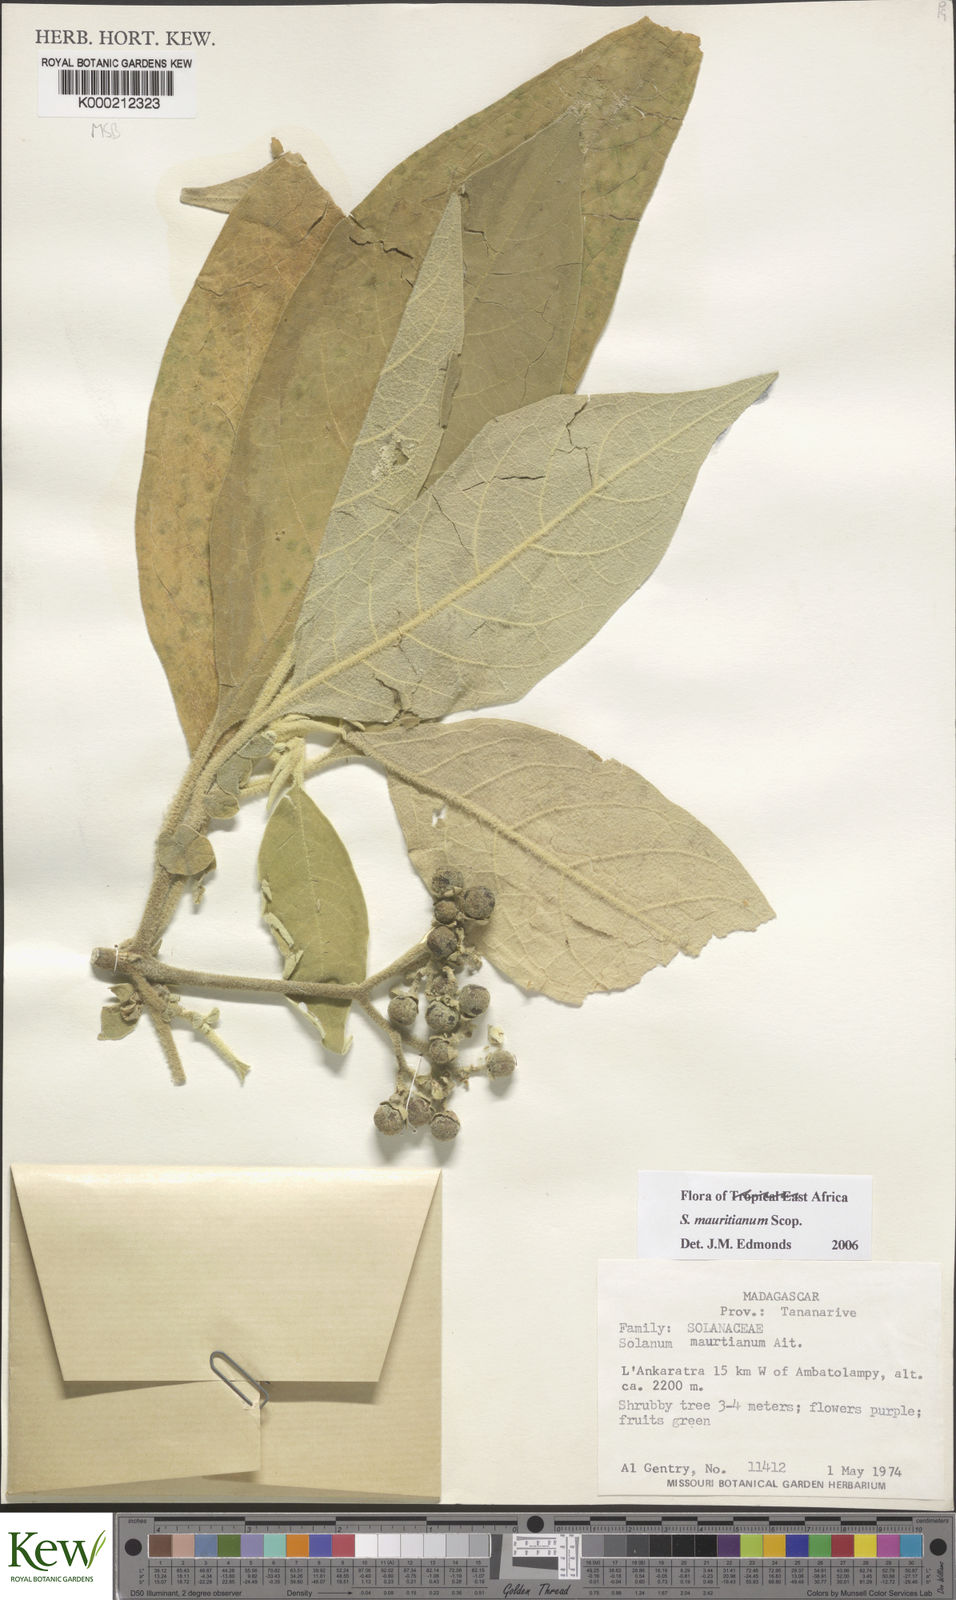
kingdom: Plantae
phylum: Tracheophyta
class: Magnoliopsida
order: Solanales
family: Solanaceae
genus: Solanum
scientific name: Solanum mauritianum
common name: Earleaf nightshade
